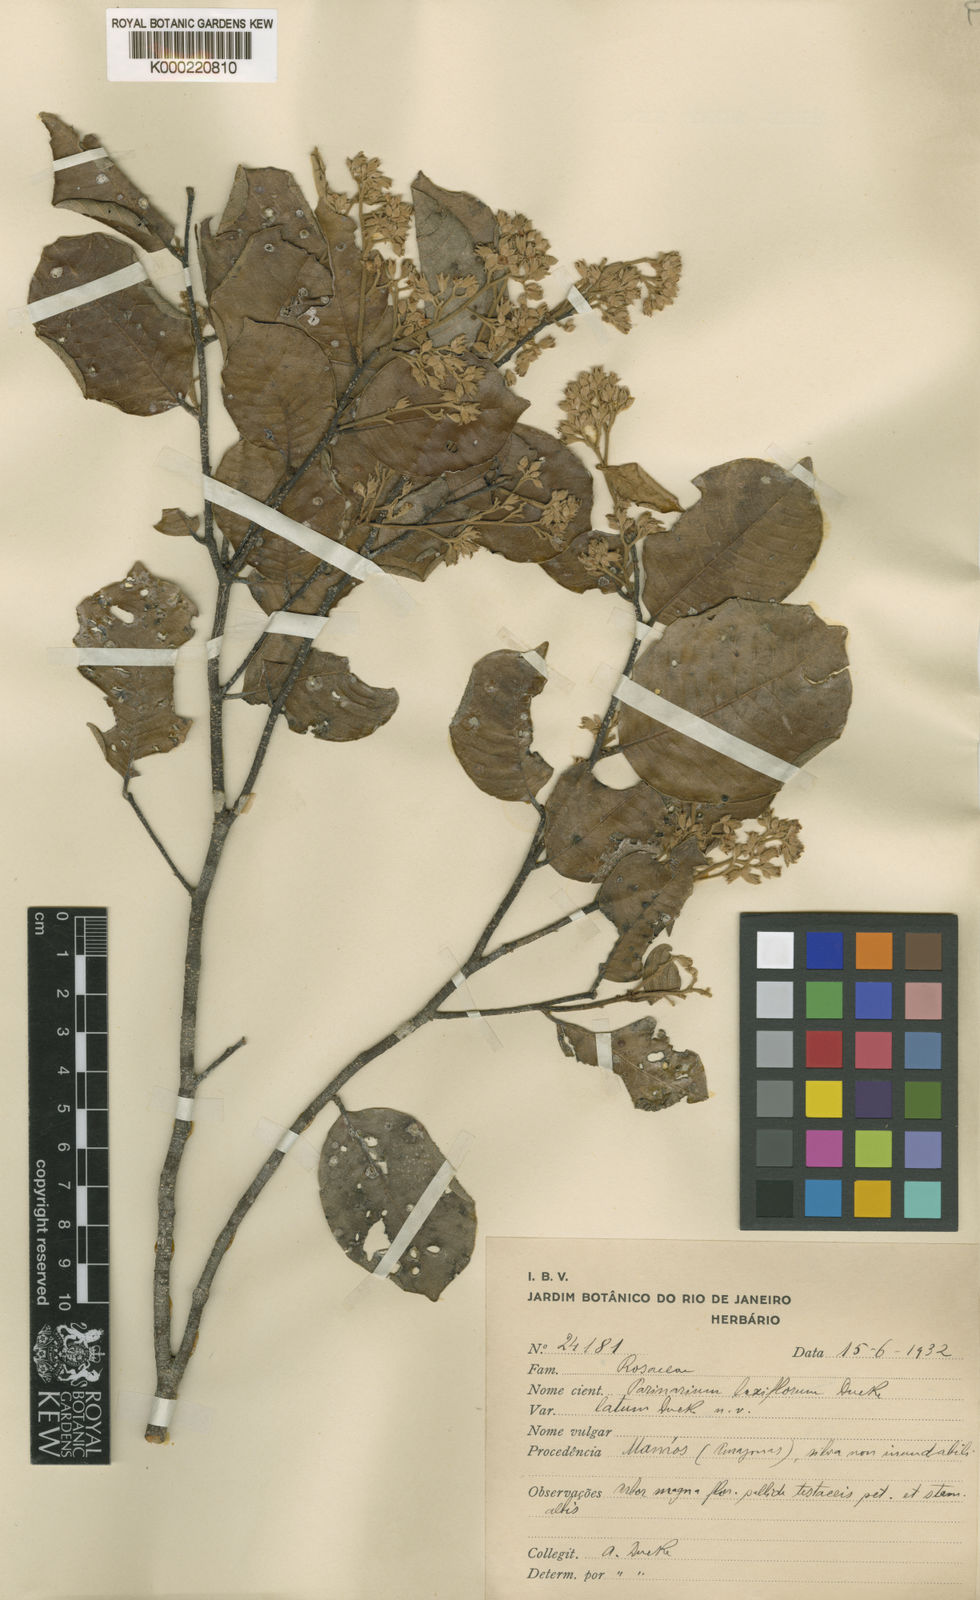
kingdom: Plantae
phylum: Tracheophyta
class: Magnoliopsida
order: Malpighiales
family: Chrysobalanaceae
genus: Parinari
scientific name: Parinari excelsa
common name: Guinea-plum
